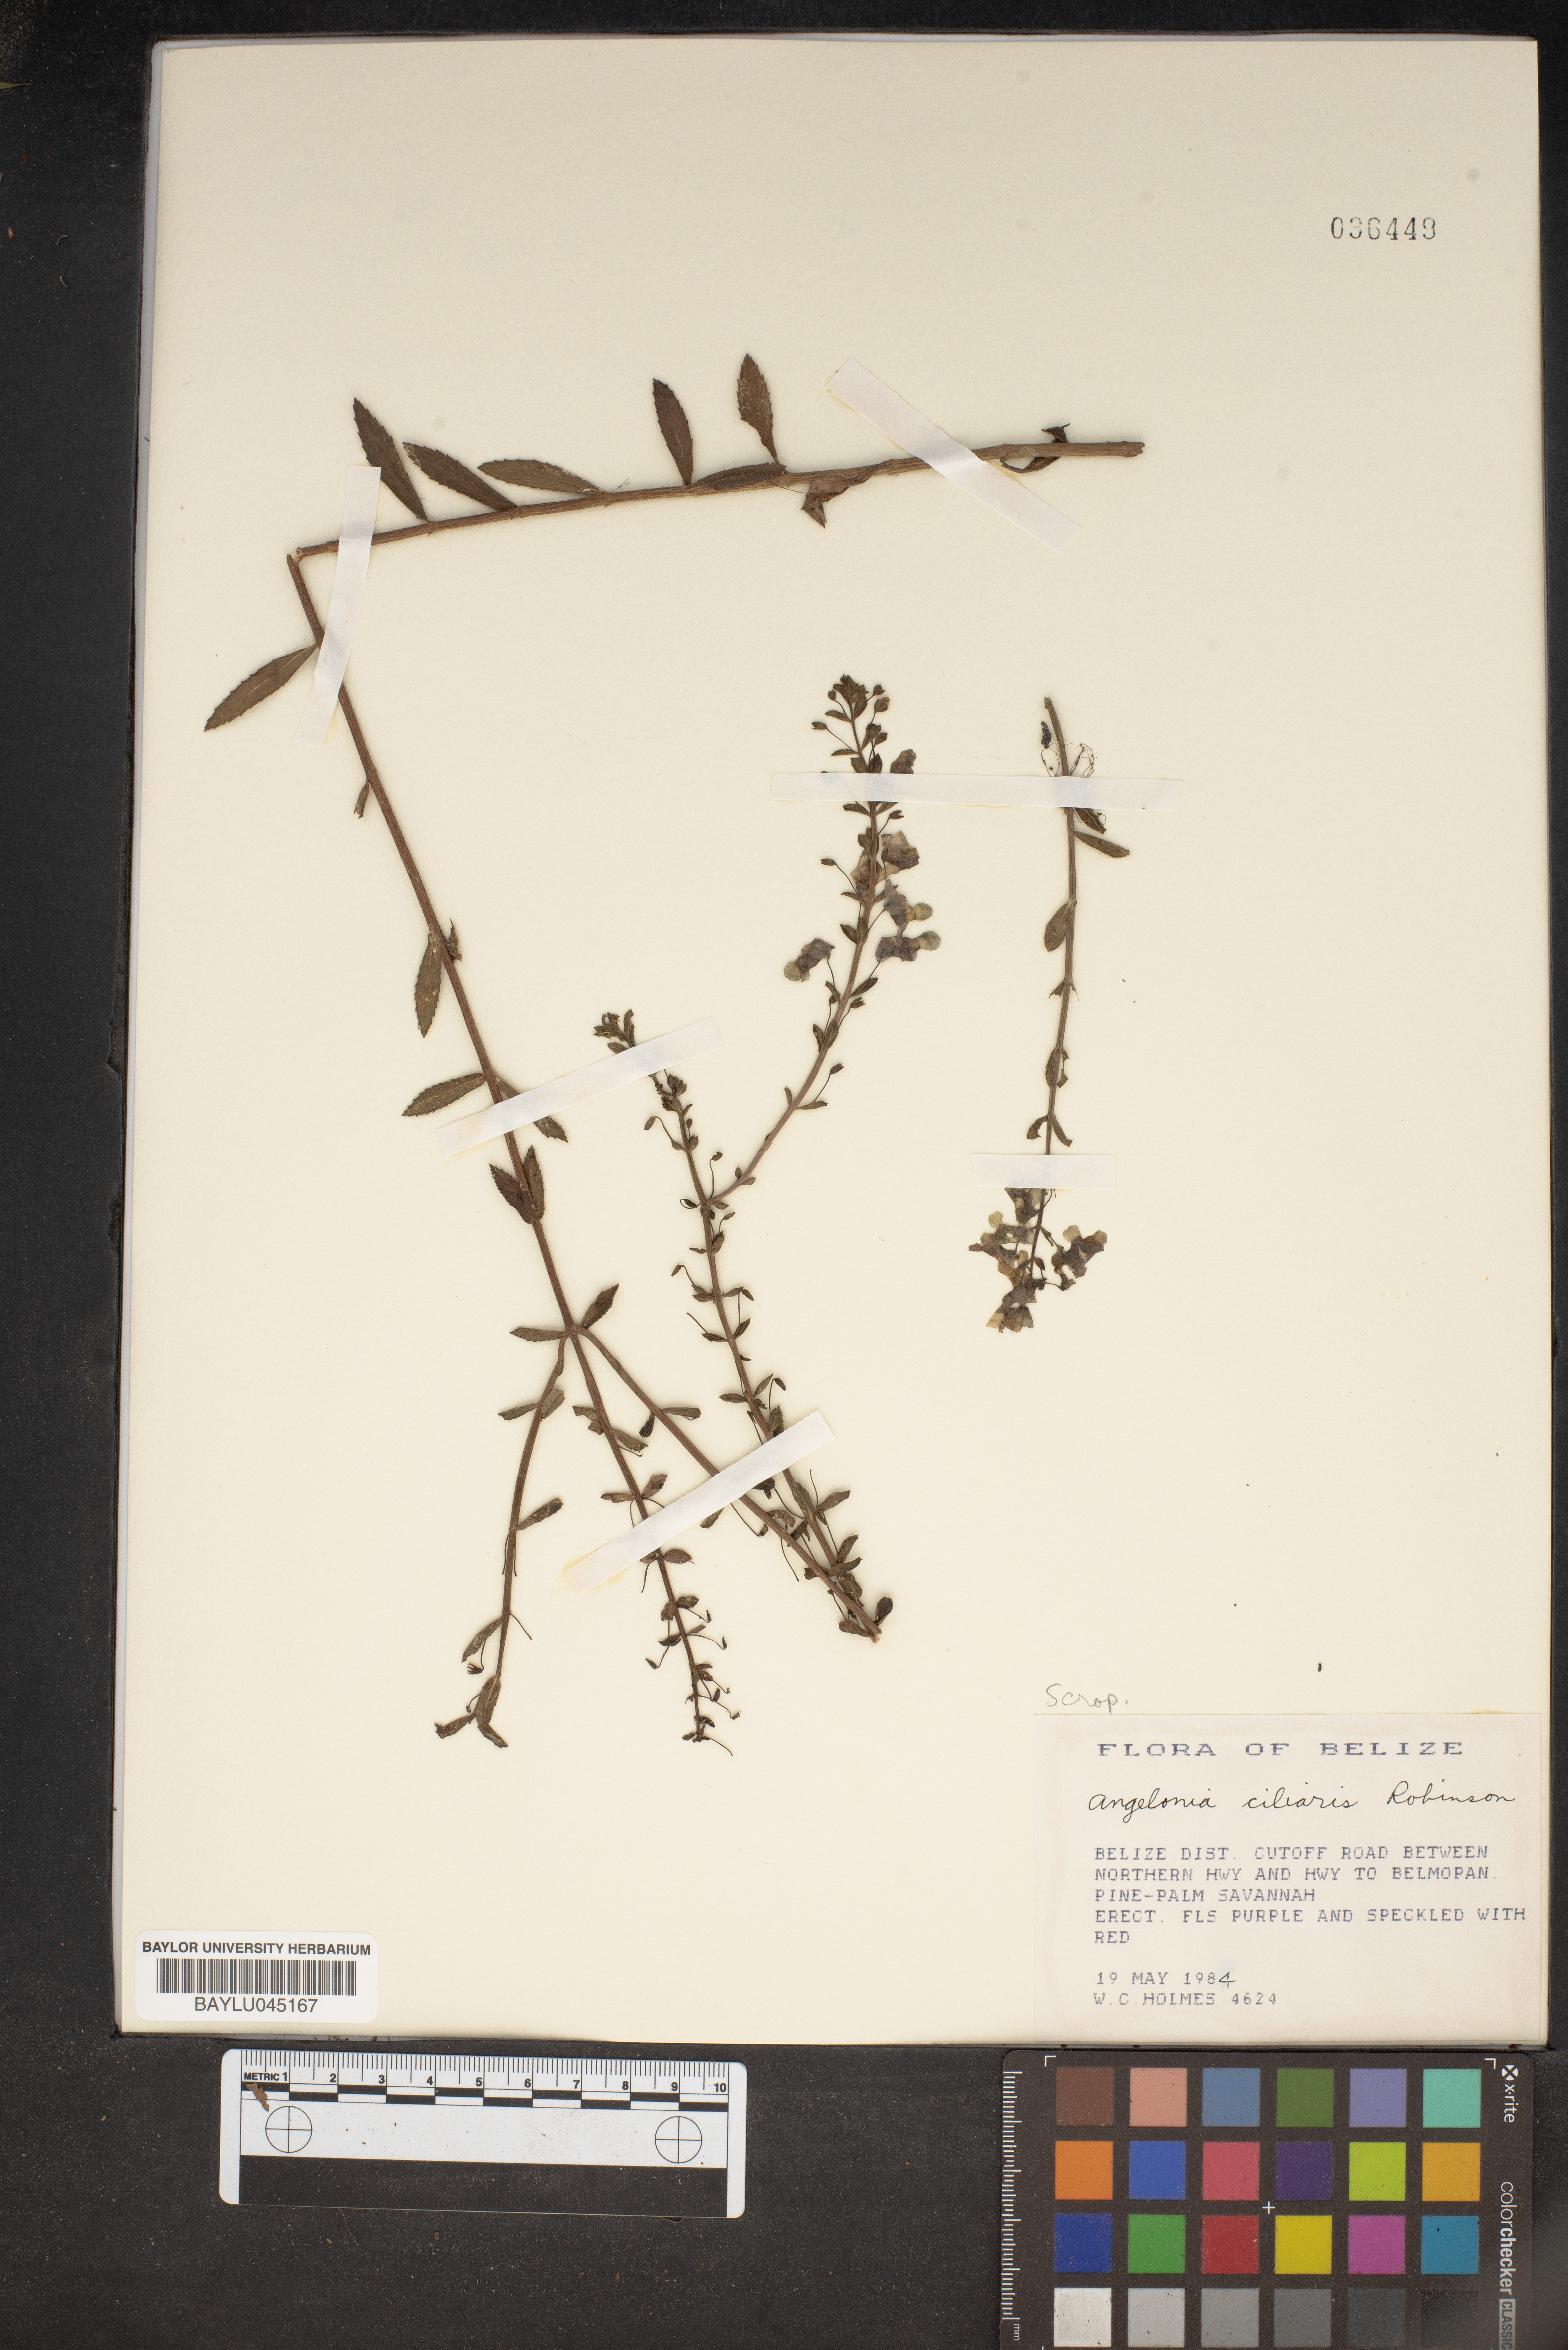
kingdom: Plantae
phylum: Tracheophyta
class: Magnoliopsida
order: Lamiales
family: Plantaginaceae
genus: Angelonia
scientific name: Angelonia ciliaris
